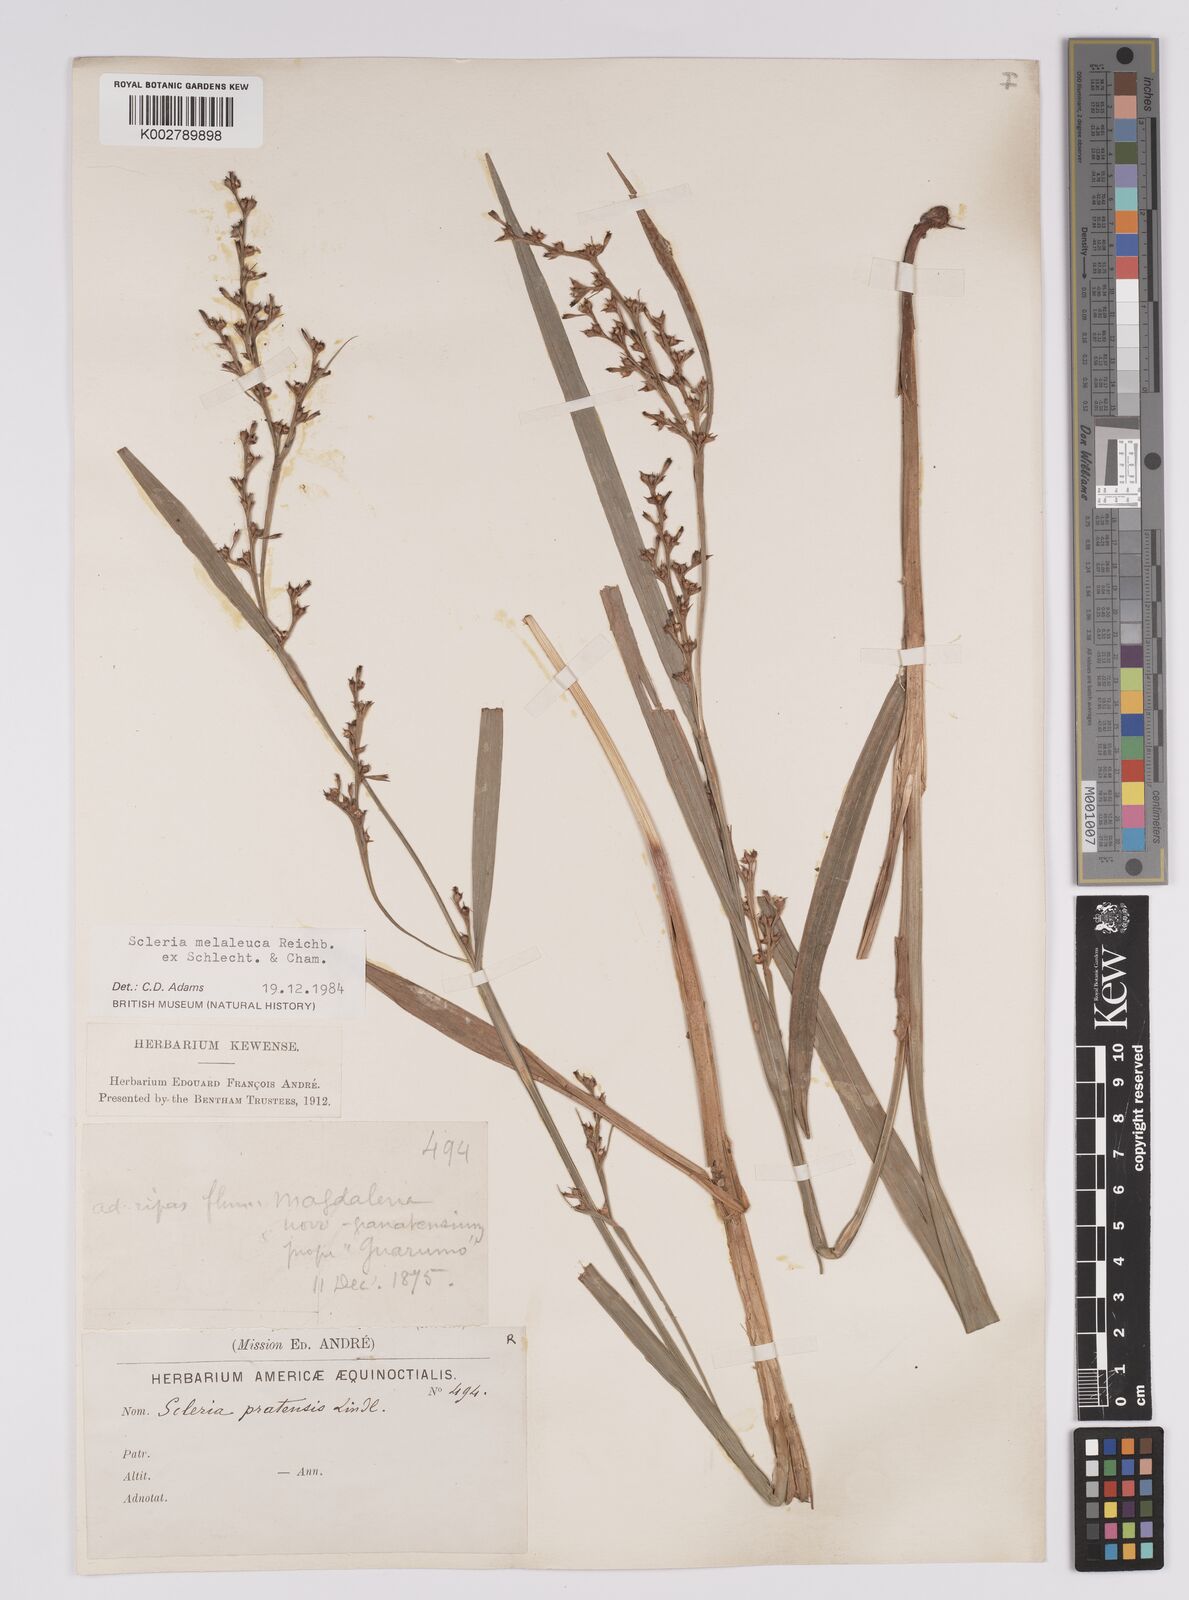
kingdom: Plantae
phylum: Tracheophyta
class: Liliopsida
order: Poales
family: Cyperaceae
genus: Scleria
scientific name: Scleria gaertneri
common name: Cortadera blanca
